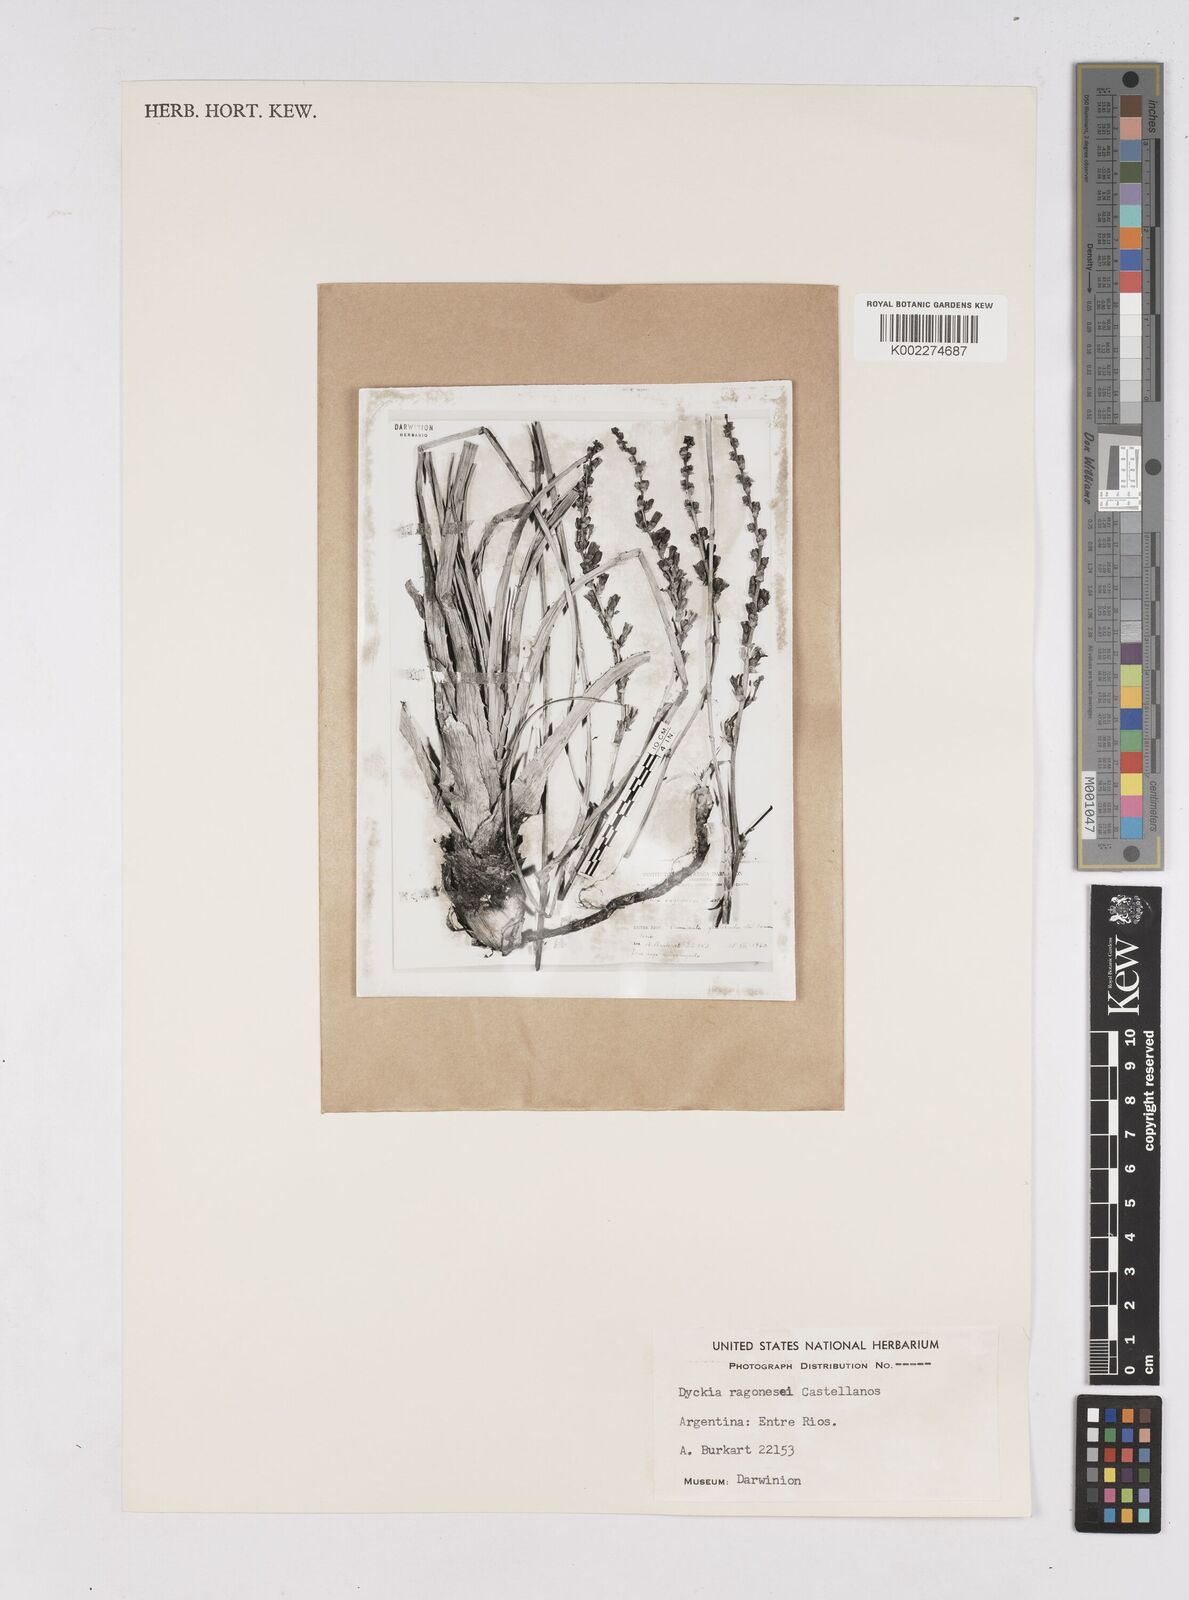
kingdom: Plantae
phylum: Tracheophyta
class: Liliopsida
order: Poales
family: Bromeliaceae
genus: Dyckia
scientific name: Dyckia ragonesei
